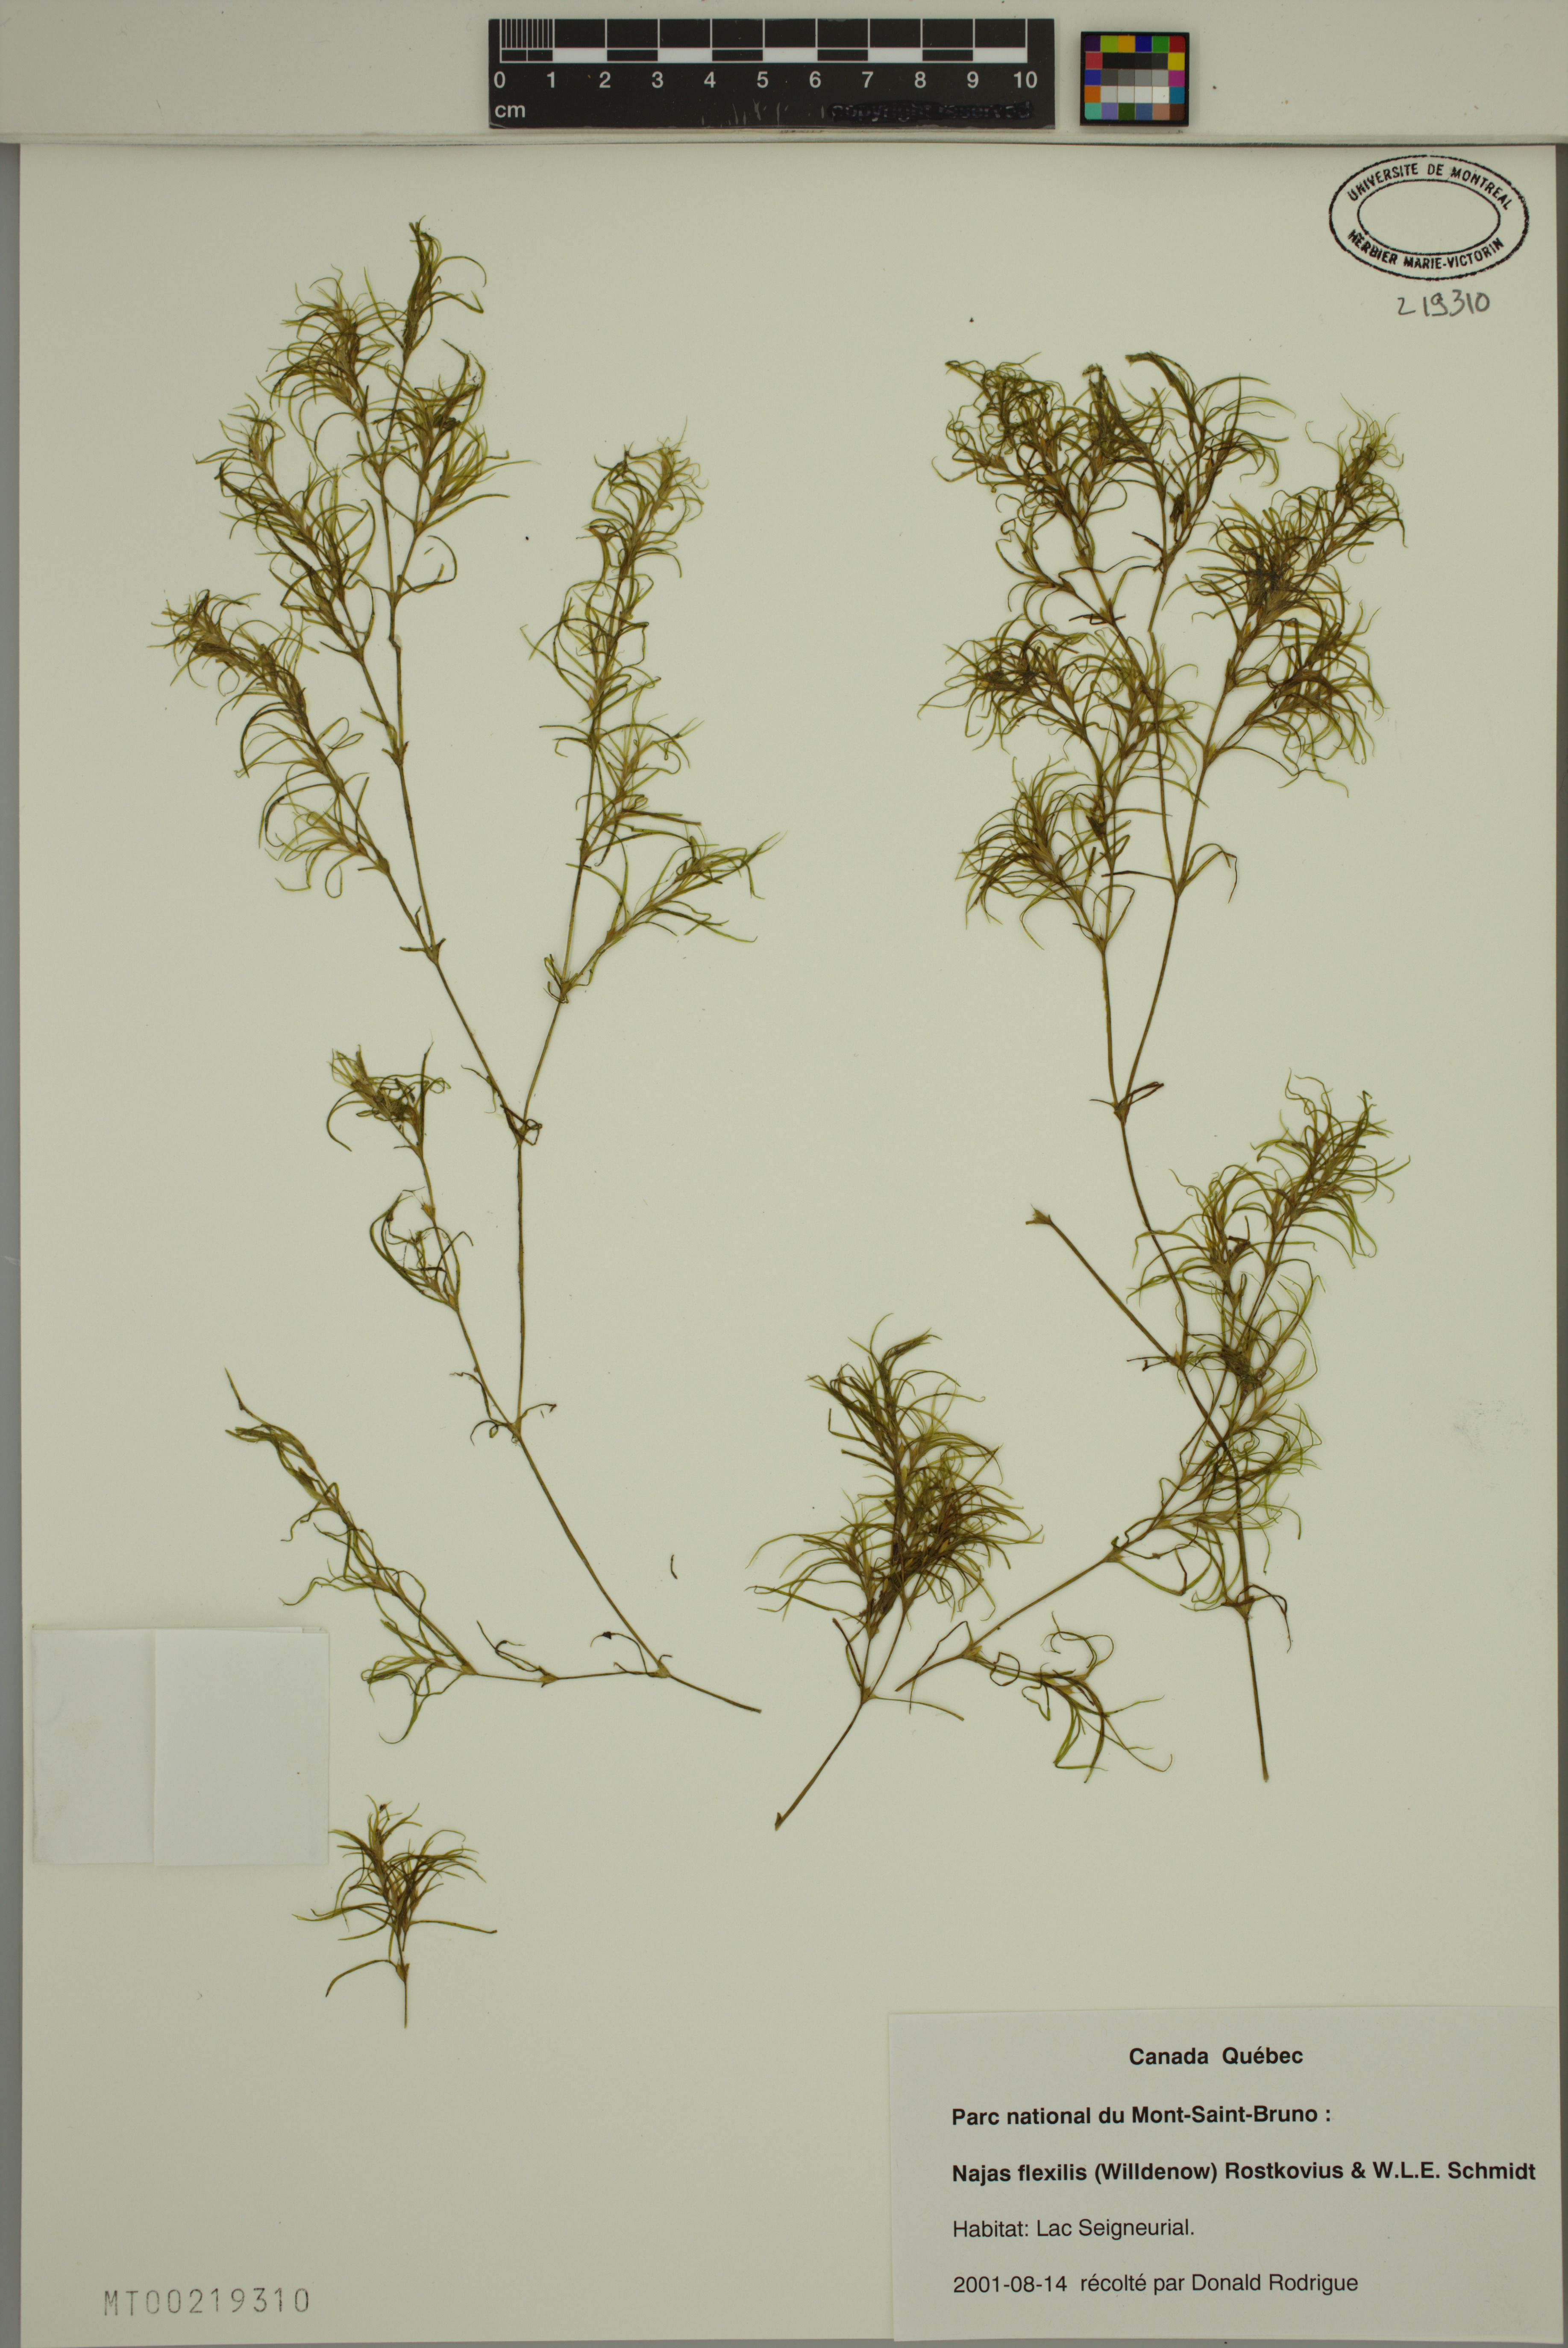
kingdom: Plantae
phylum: Tracheophyta
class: Liliopsida
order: Alismatales
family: Hydrocharitaceae
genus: Najas
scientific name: Najas flexilis
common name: Slender naiad
